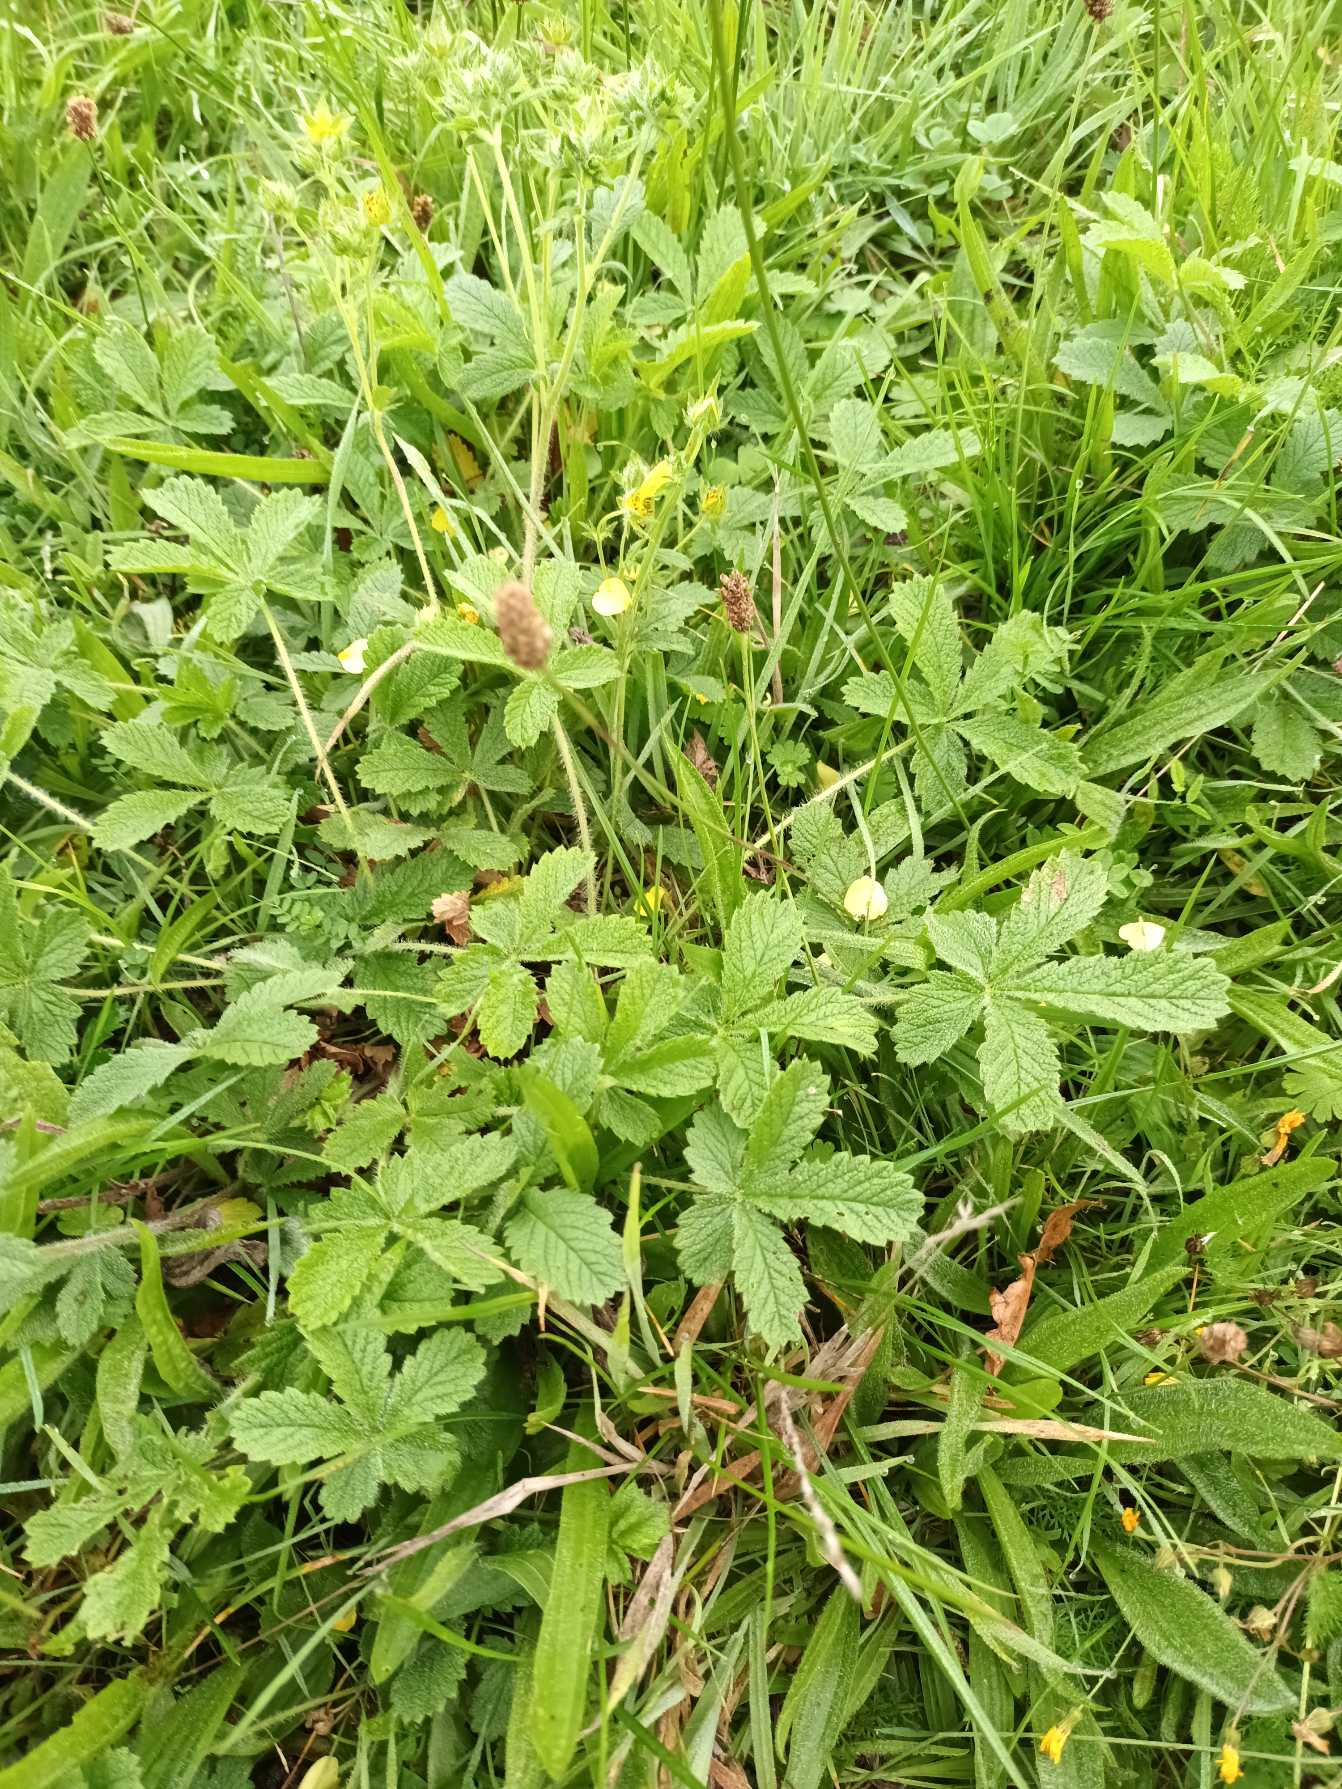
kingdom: Plantae
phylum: Tracheophyta
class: Magnoliopsida
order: Rosales
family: Rosaceae
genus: Potentilla
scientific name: Potentilla recta
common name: Rank potentil
